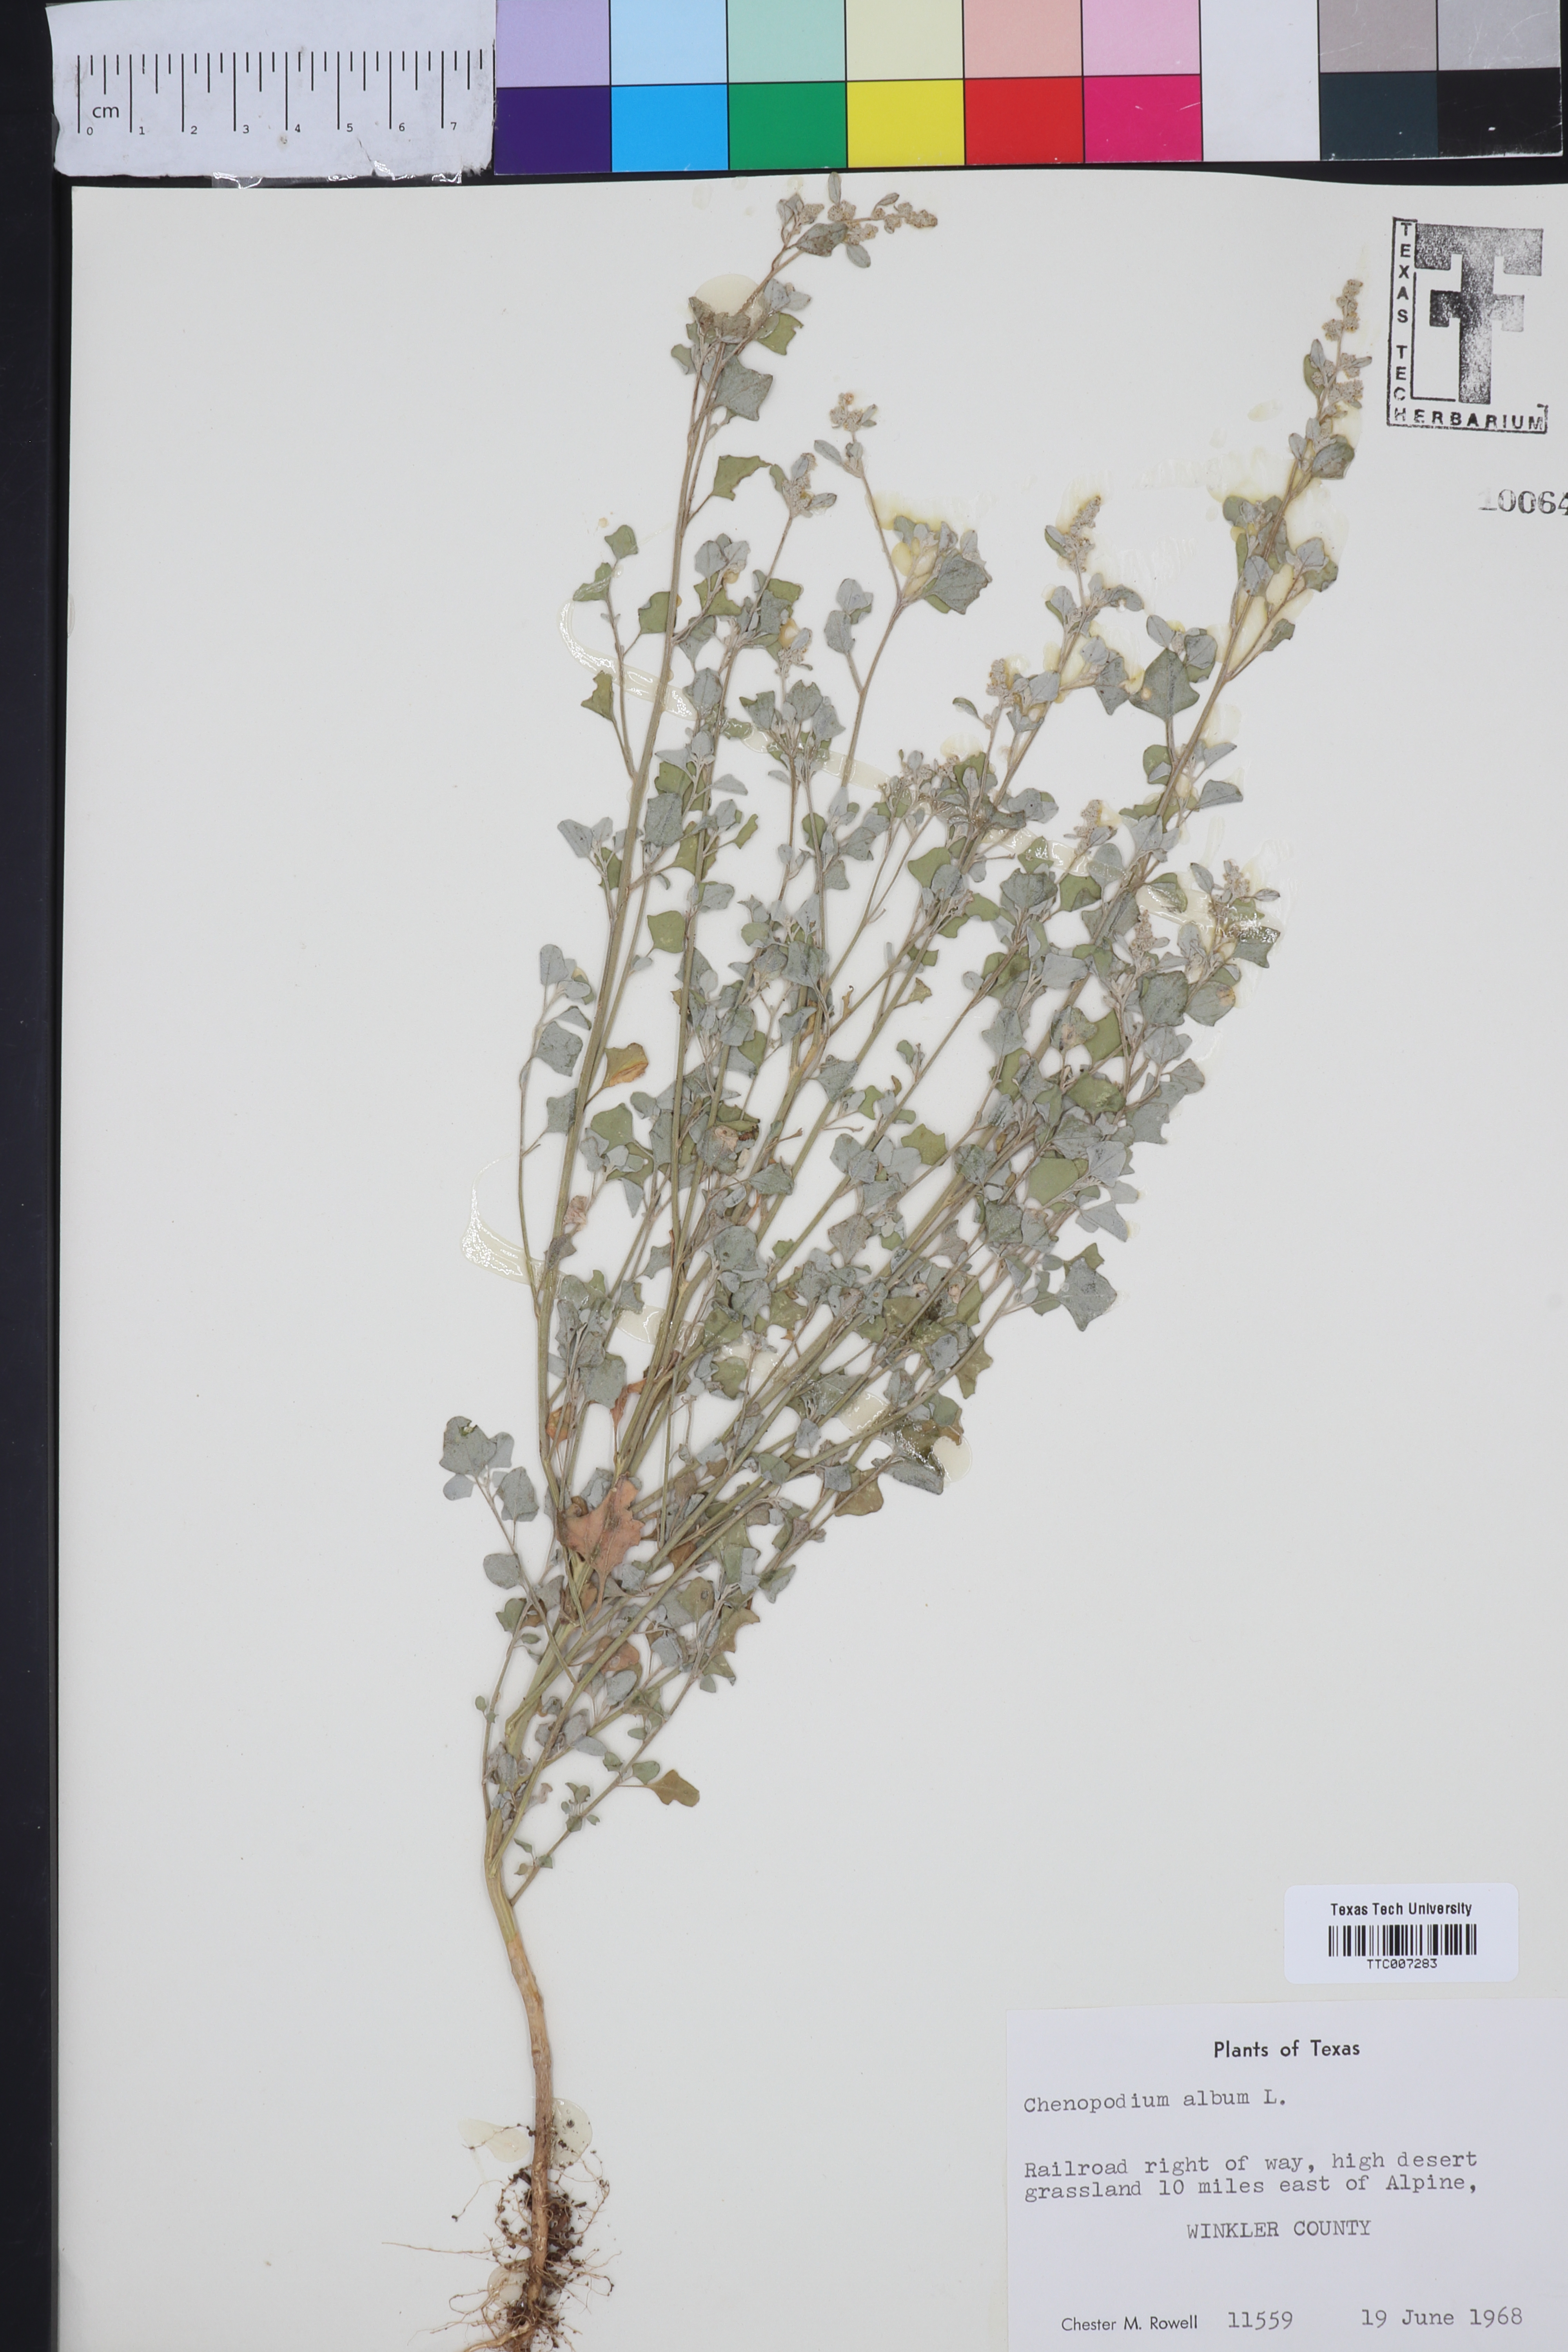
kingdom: Plantae
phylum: Tracheophyta
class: Magnoliopsida
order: Caryophyllales
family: Amaranthaceae
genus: Chenopodium
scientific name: Chenopodium album
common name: Fat-hen
